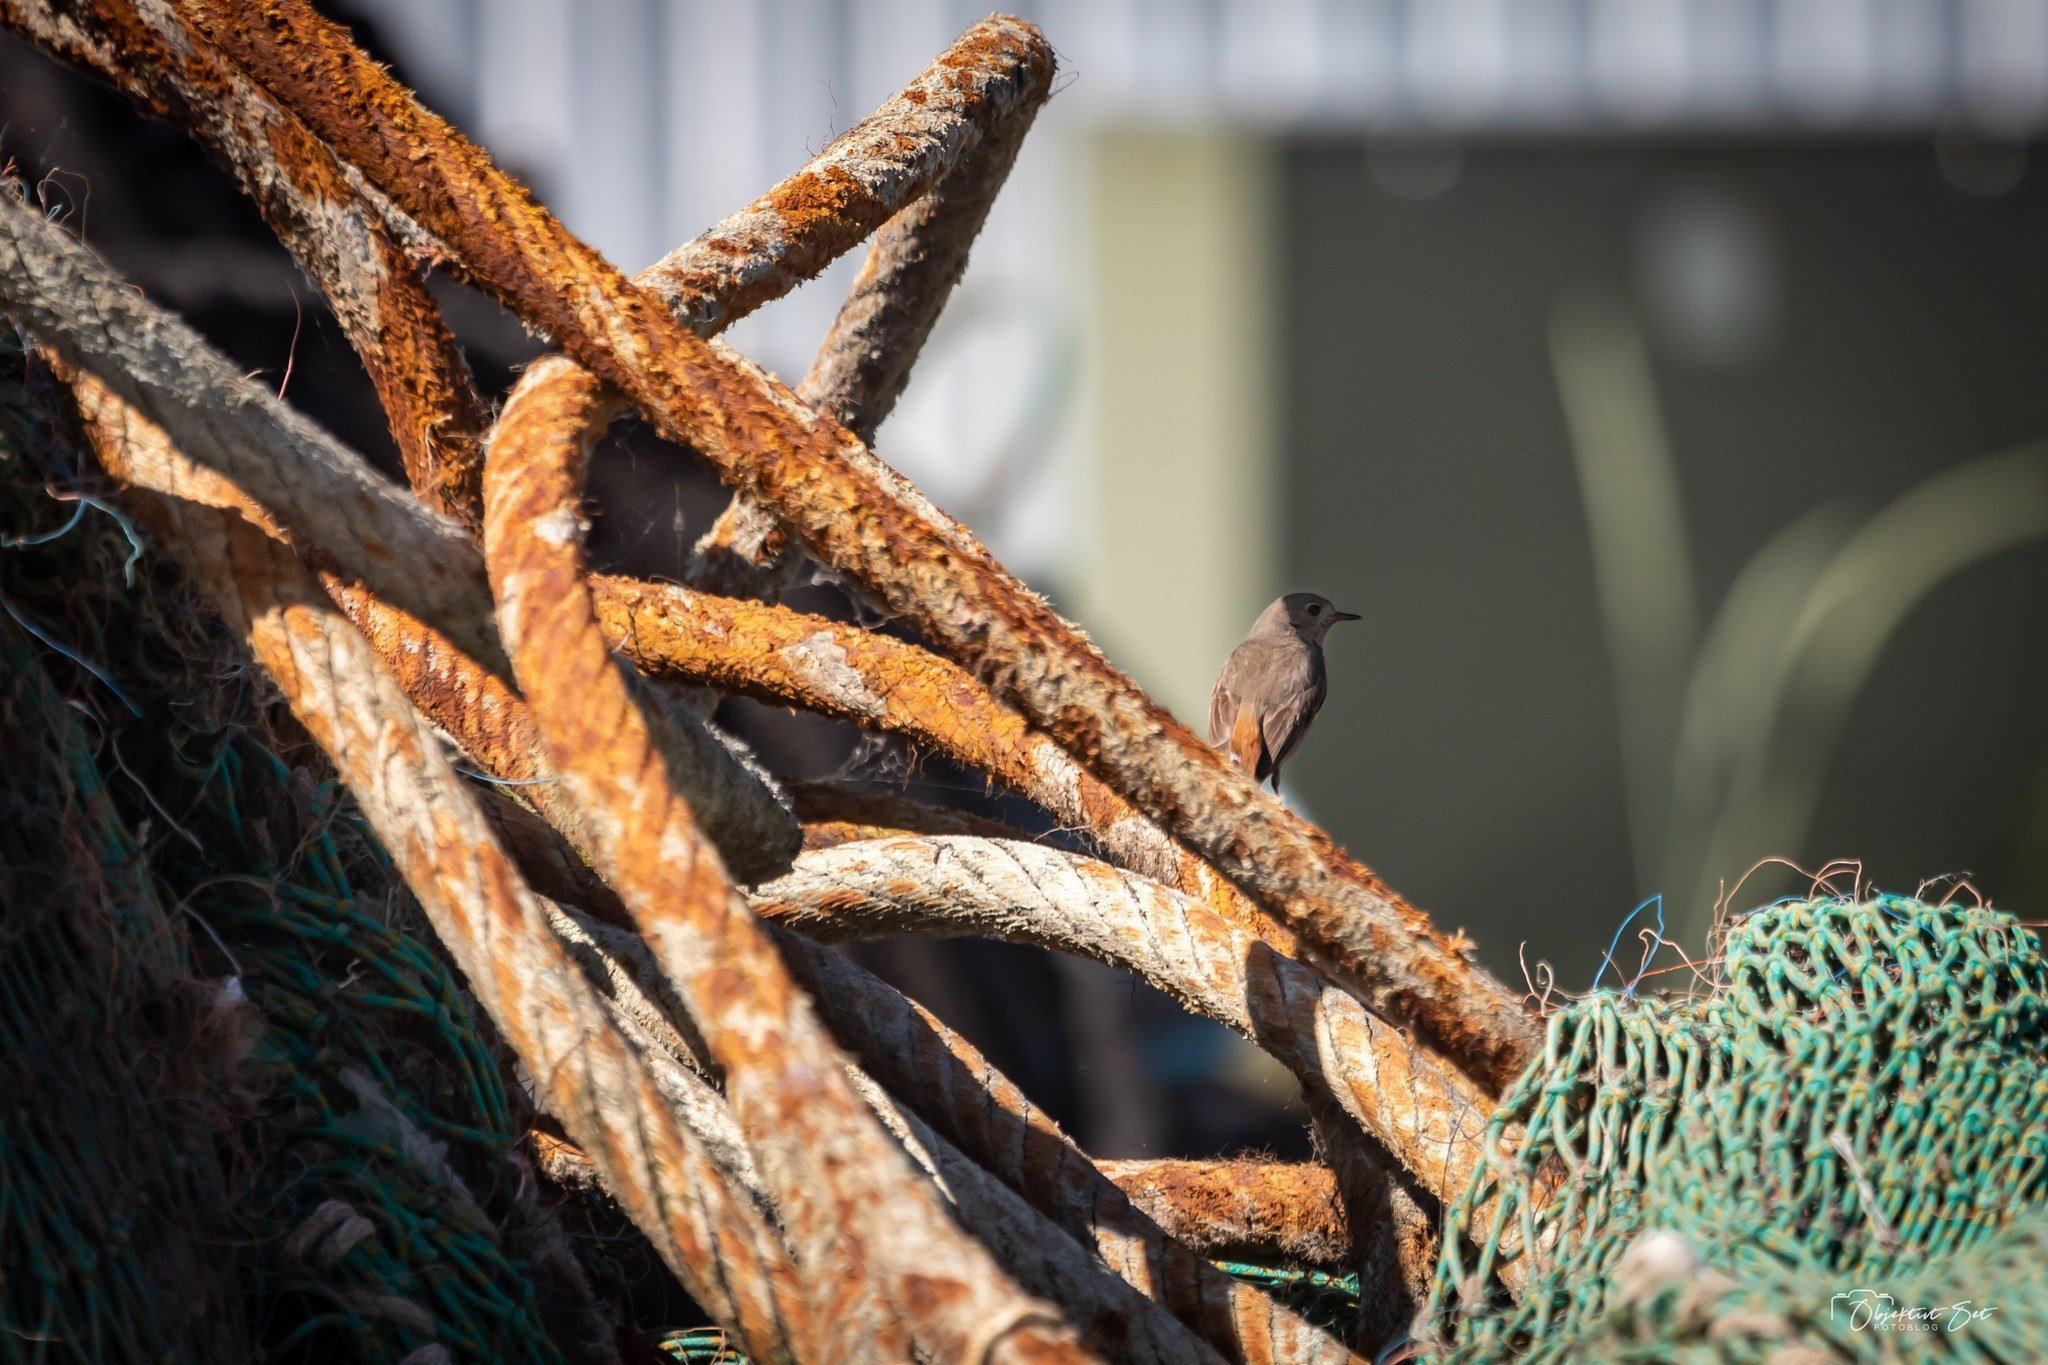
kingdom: Animalia
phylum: Chordata
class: Aves
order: Passeriformes
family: Muscicapidae
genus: Phoenicurus
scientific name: Phoenicurus phoenicurus
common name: Rødstjert
